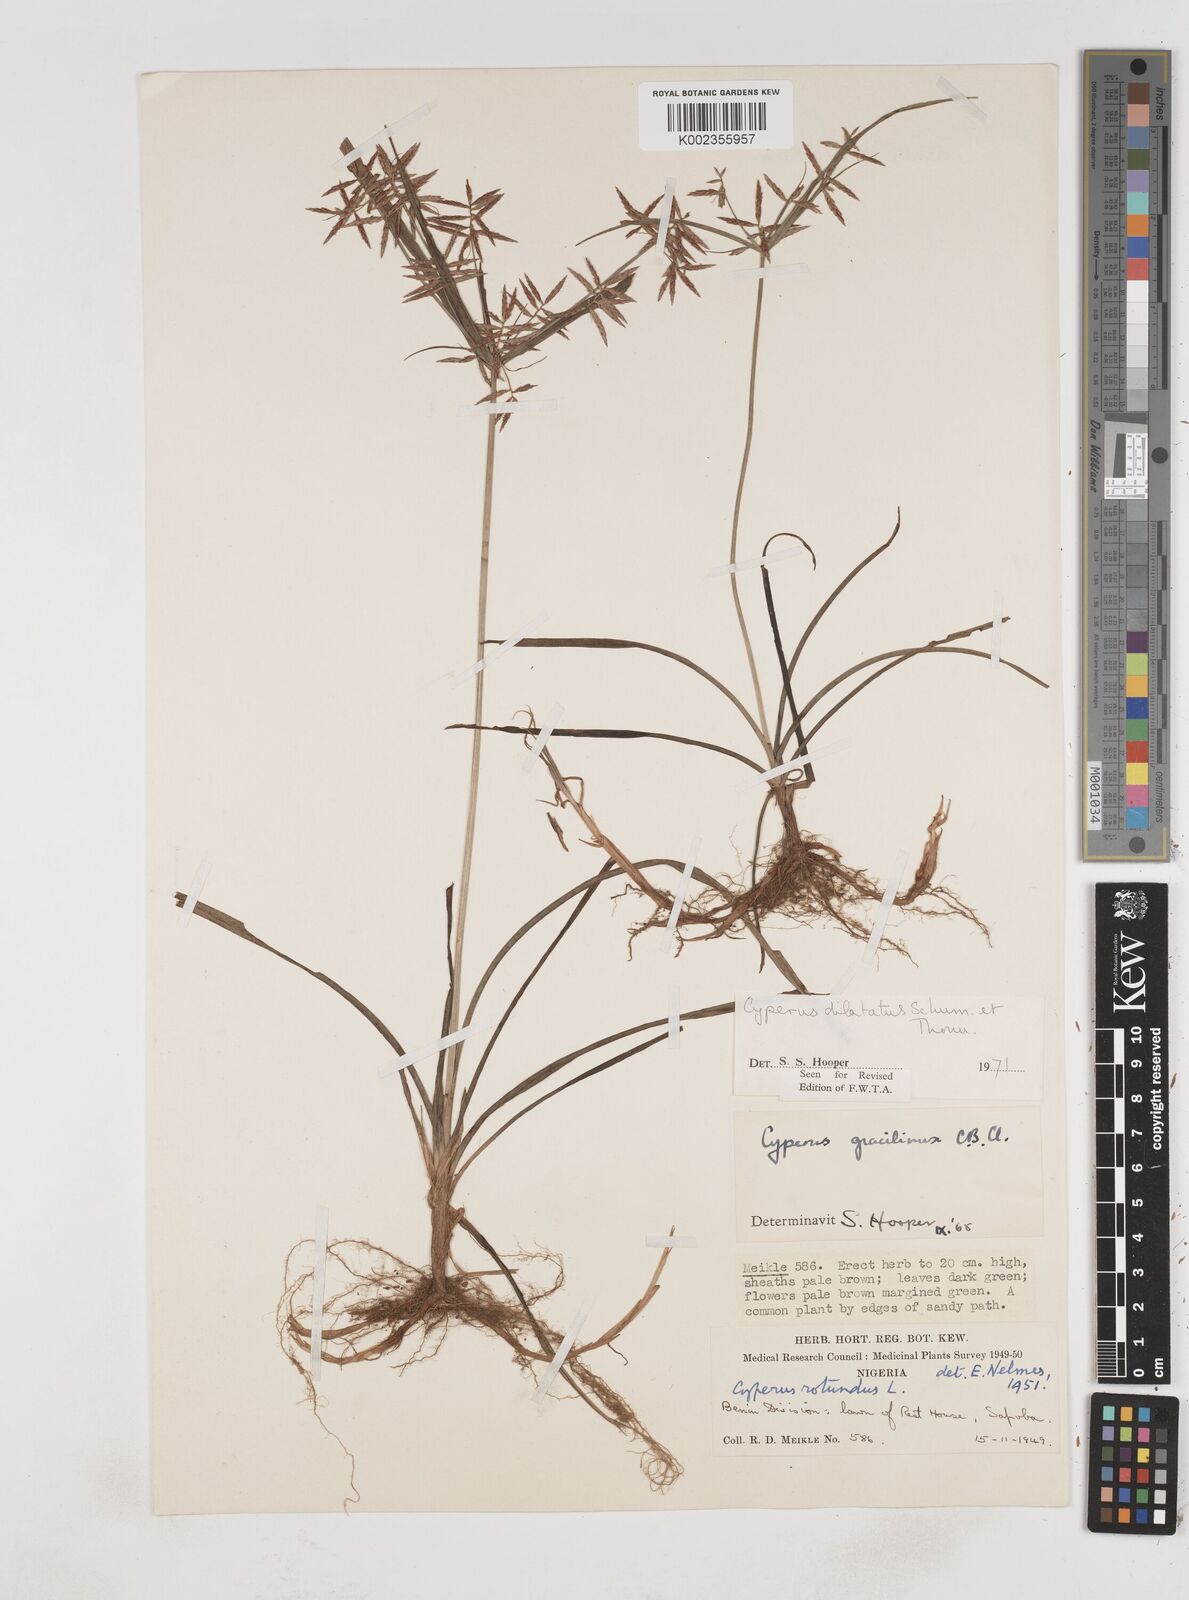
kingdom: Plantae
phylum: Tracheophyta
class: Liliopsida
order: Poales
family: Cyperaceae
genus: Cyperus
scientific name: Cyperus dilatatus
